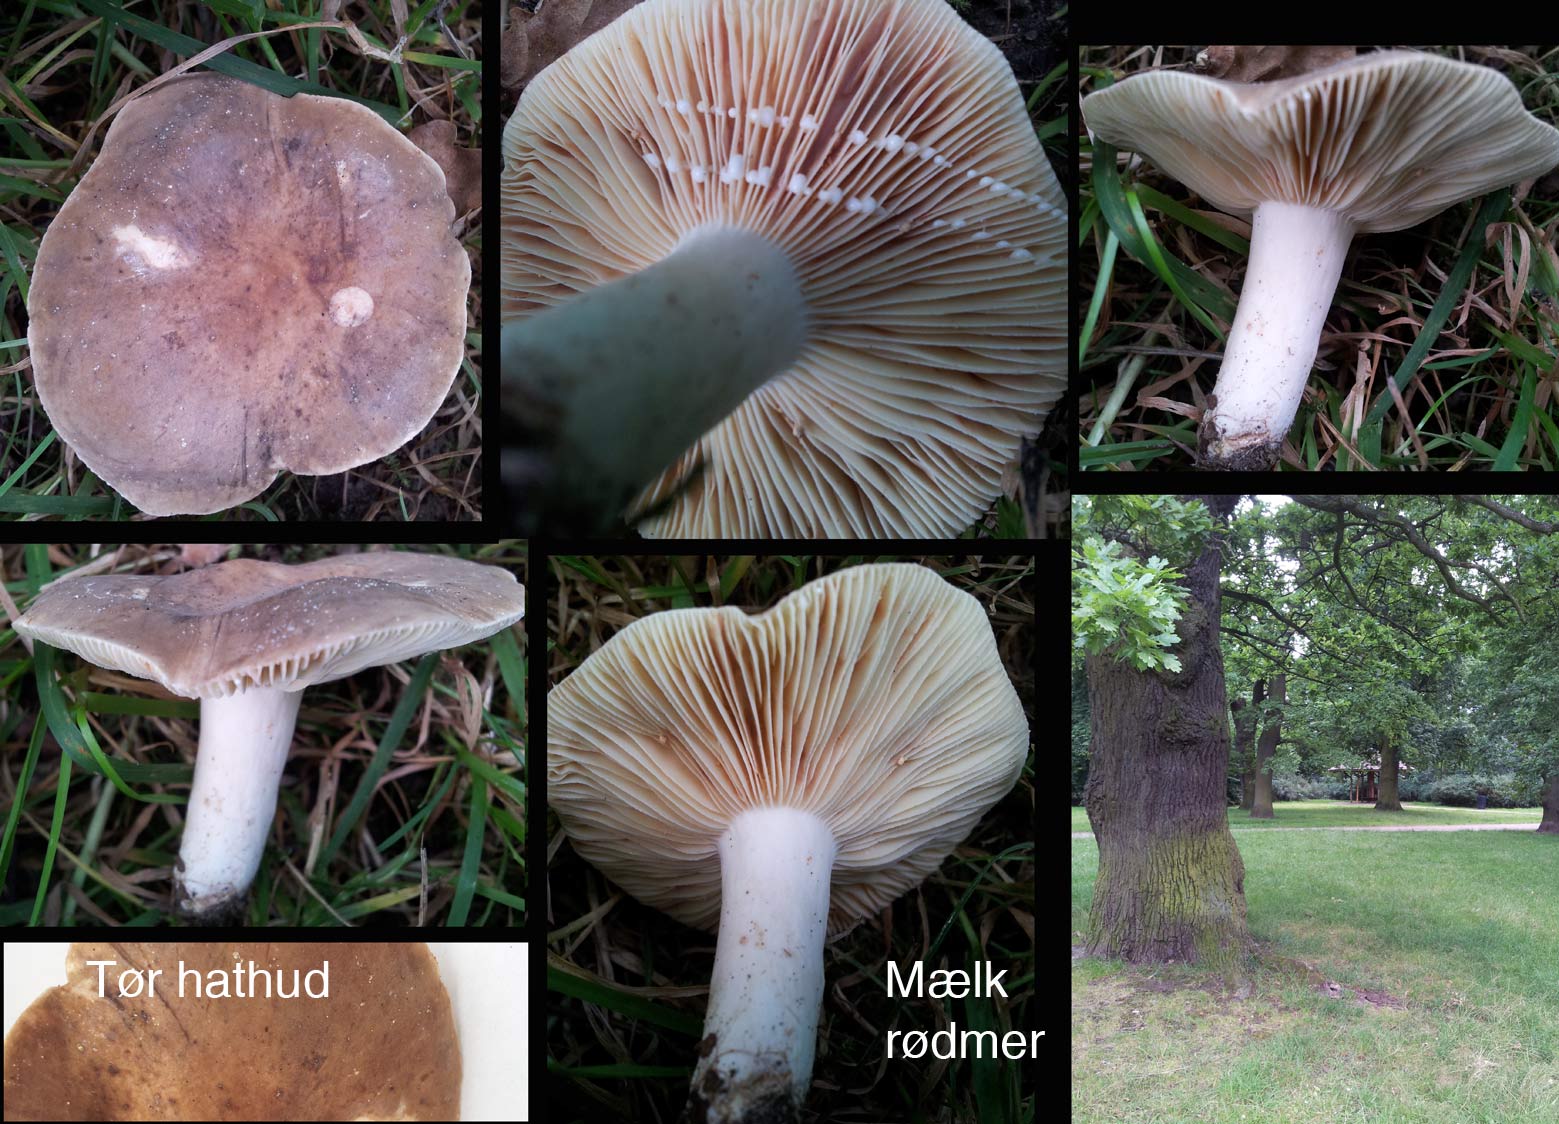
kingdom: Fungi
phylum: Basidiomycota
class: Agaricomycetes
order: Russulales
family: Russulaceae
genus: Lactarius
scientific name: Lactarius azonites
